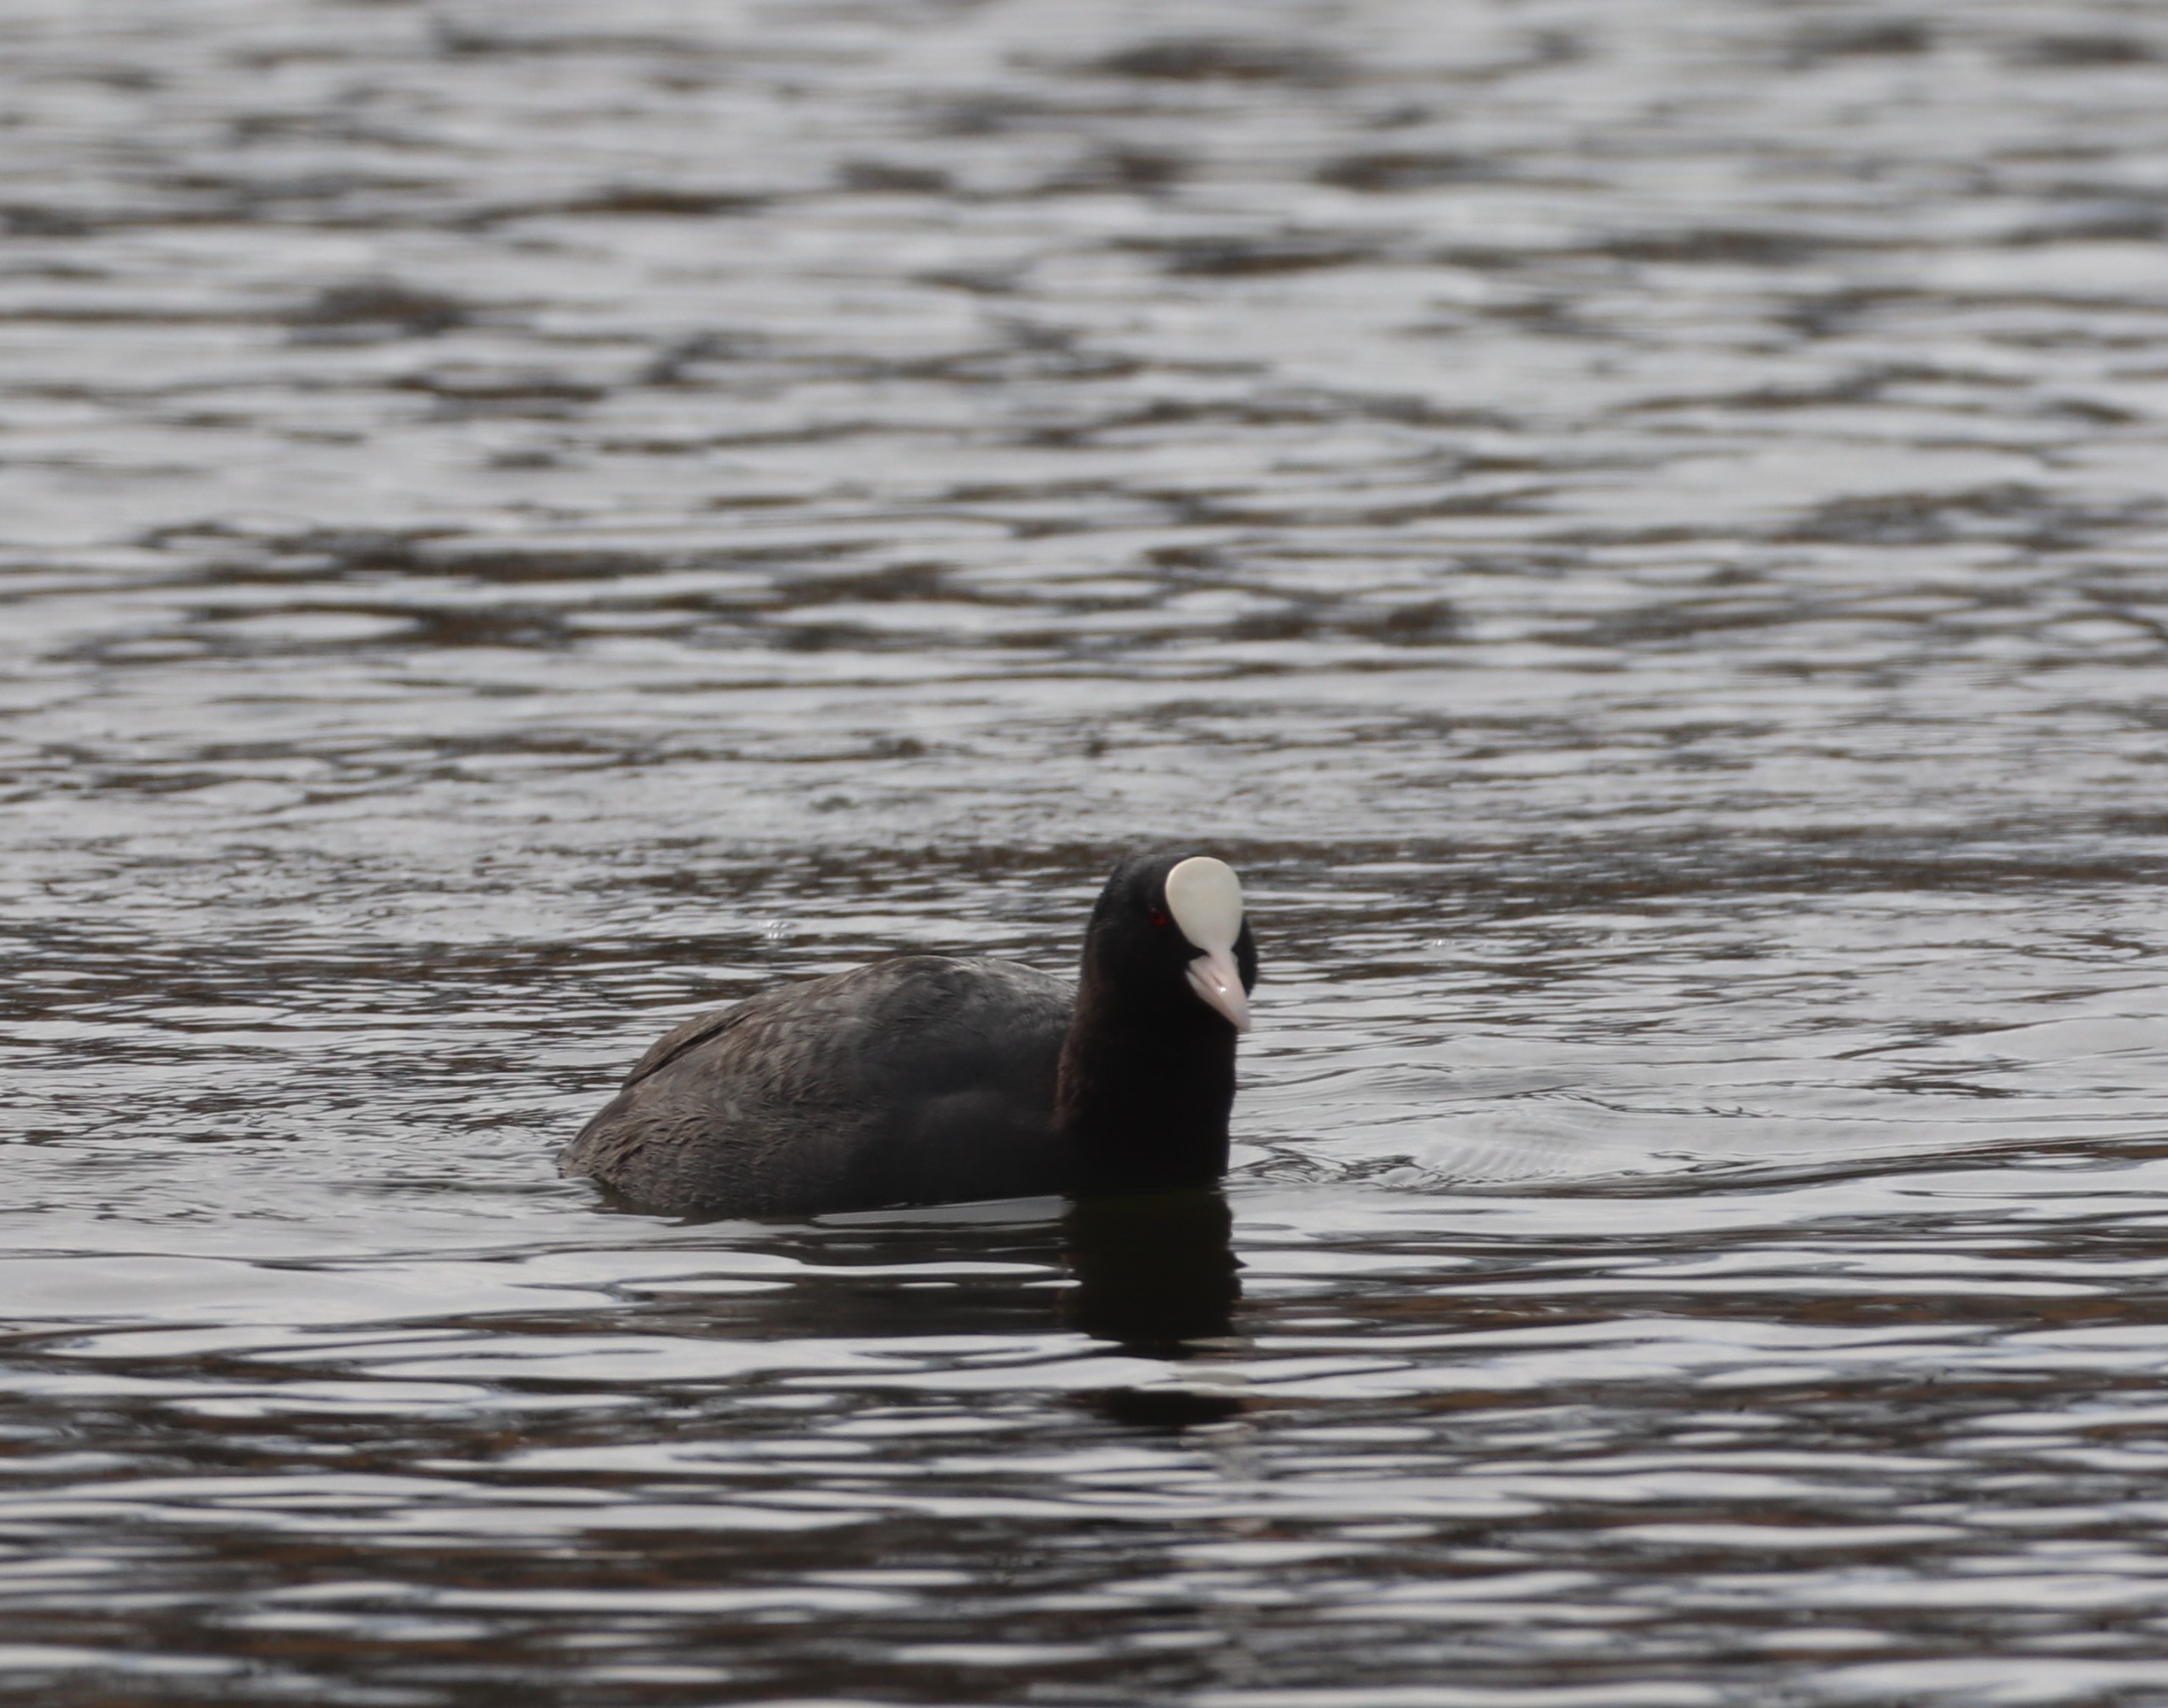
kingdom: Animalia
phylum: Chordata
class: Aves
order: Gruiformes
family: Rallidae
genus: Fulica
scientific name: Fulica atra
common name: Blishøne
